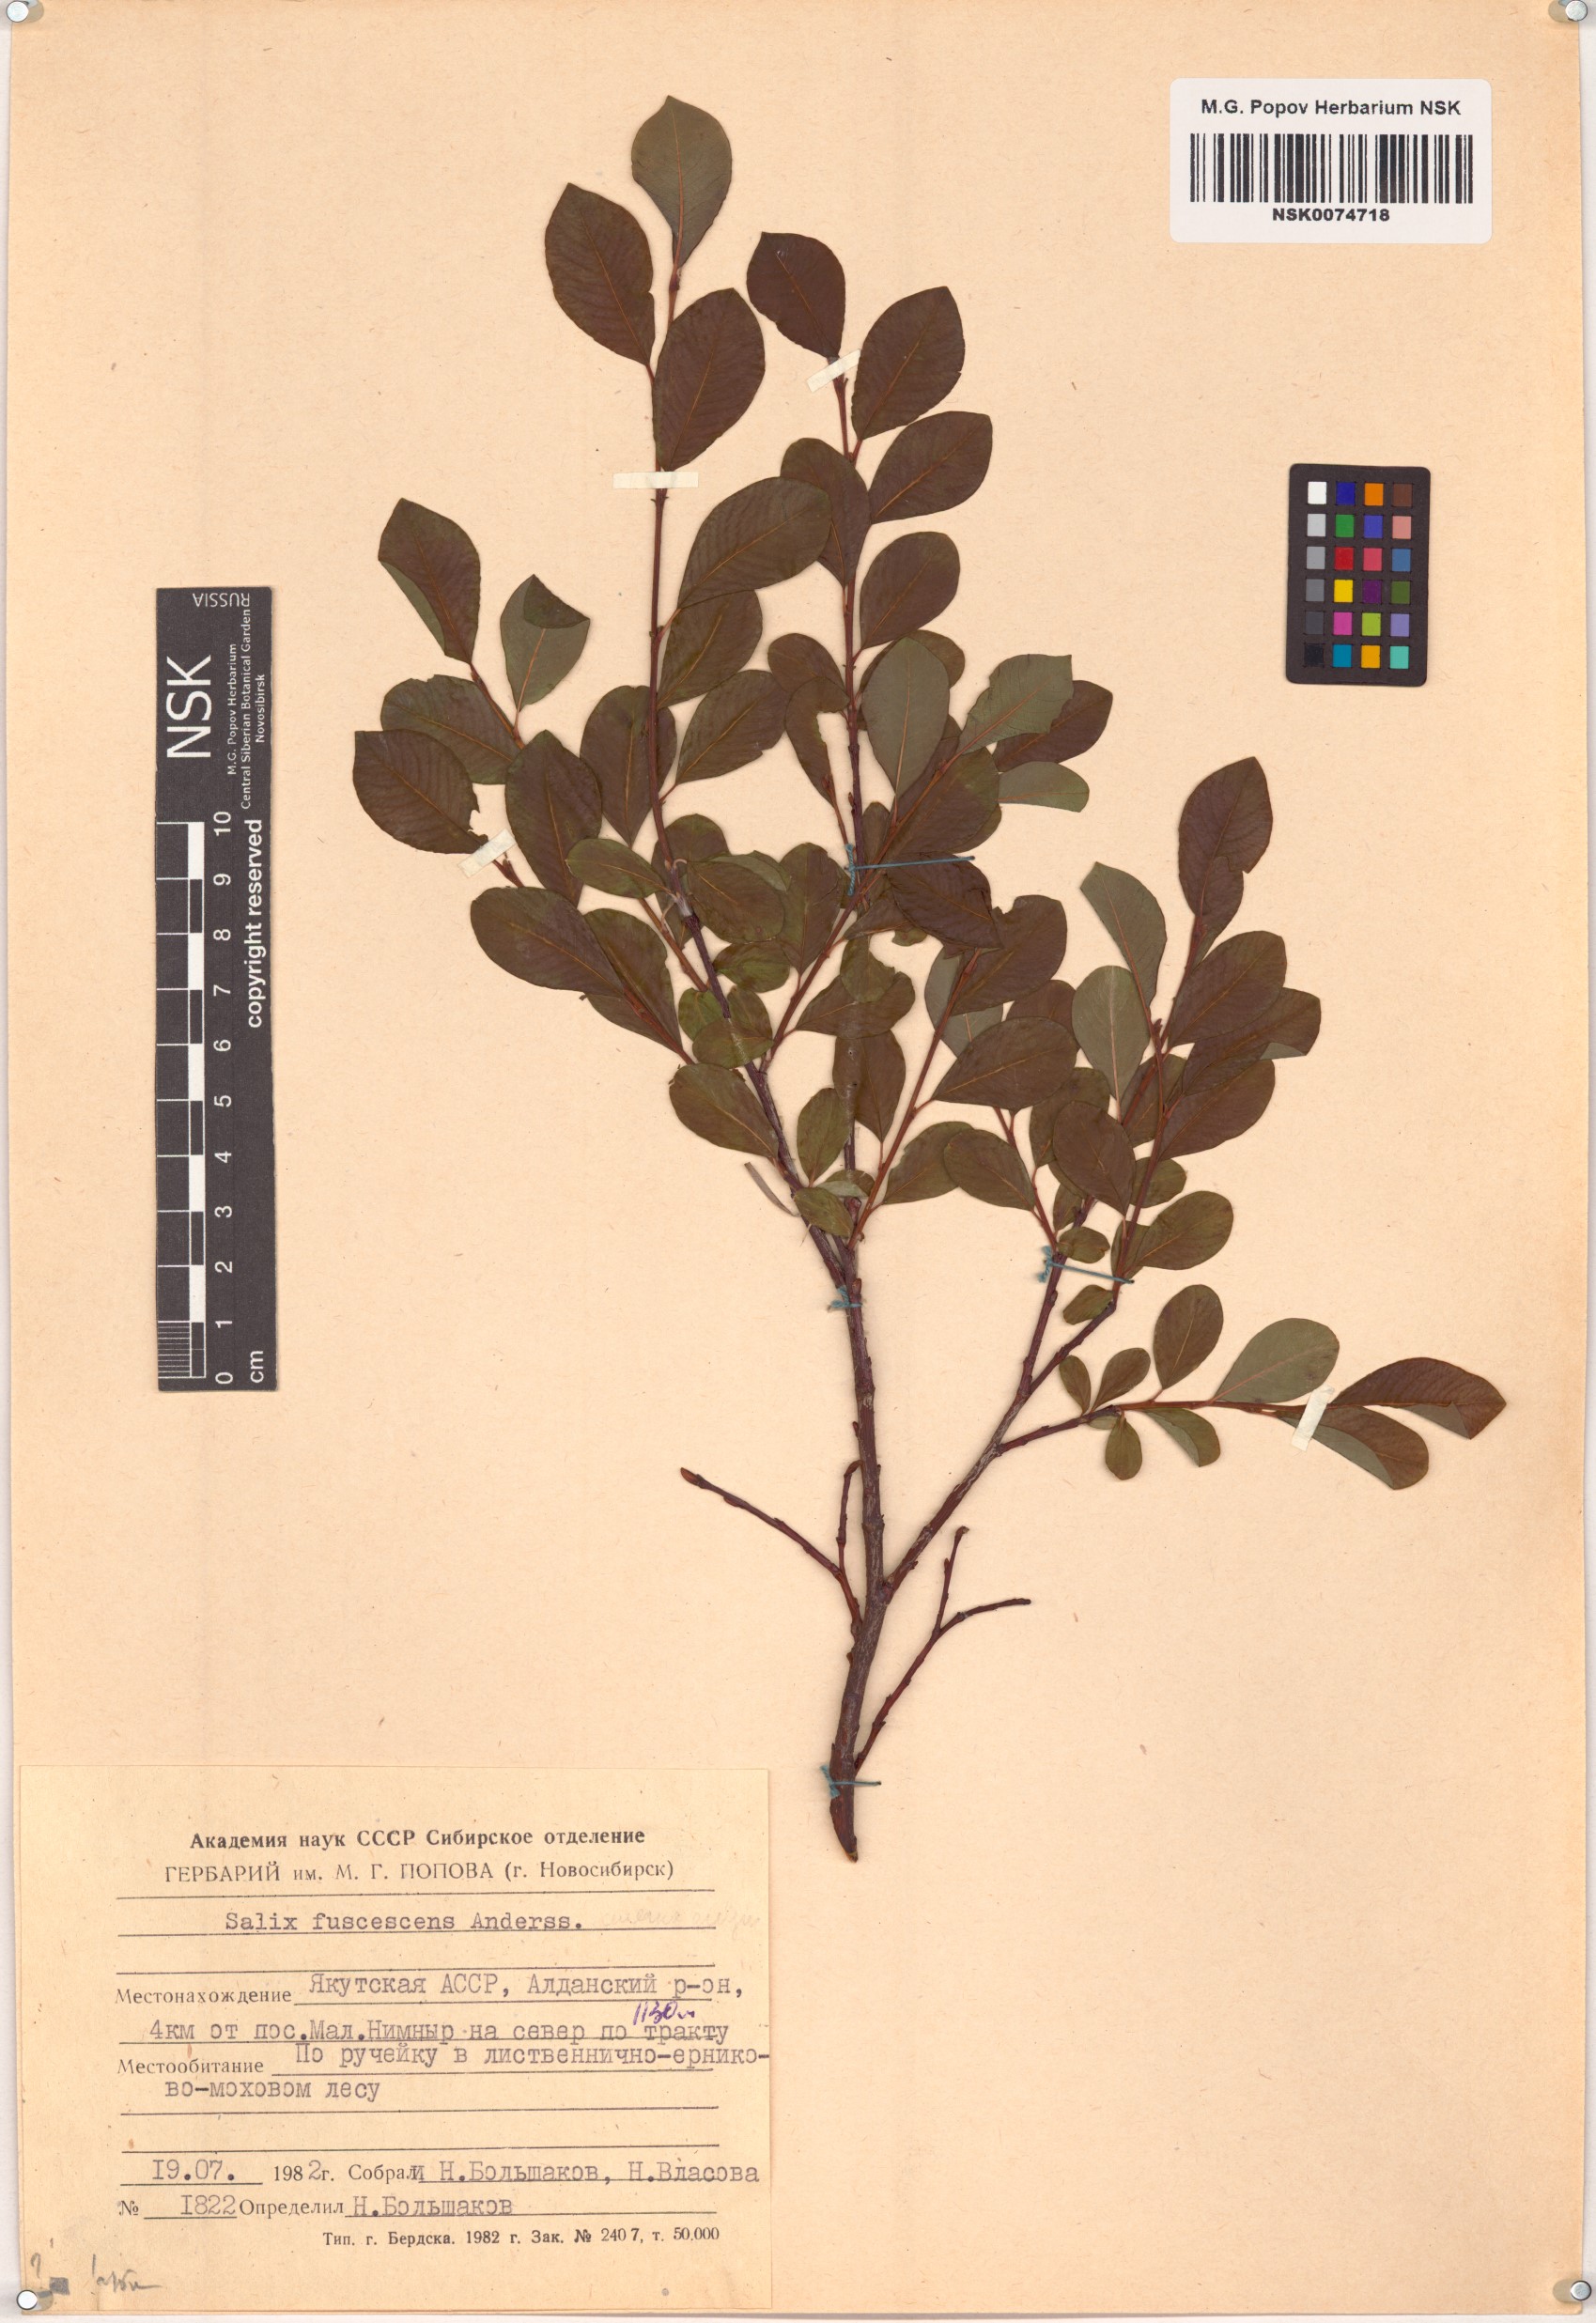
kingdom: Plantae
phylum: Tracheophyta
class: Magnoliopsida
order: Malpighiales
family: Salicaceae
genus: Salix
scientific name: Salix fuscescens
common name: Brownish willow
